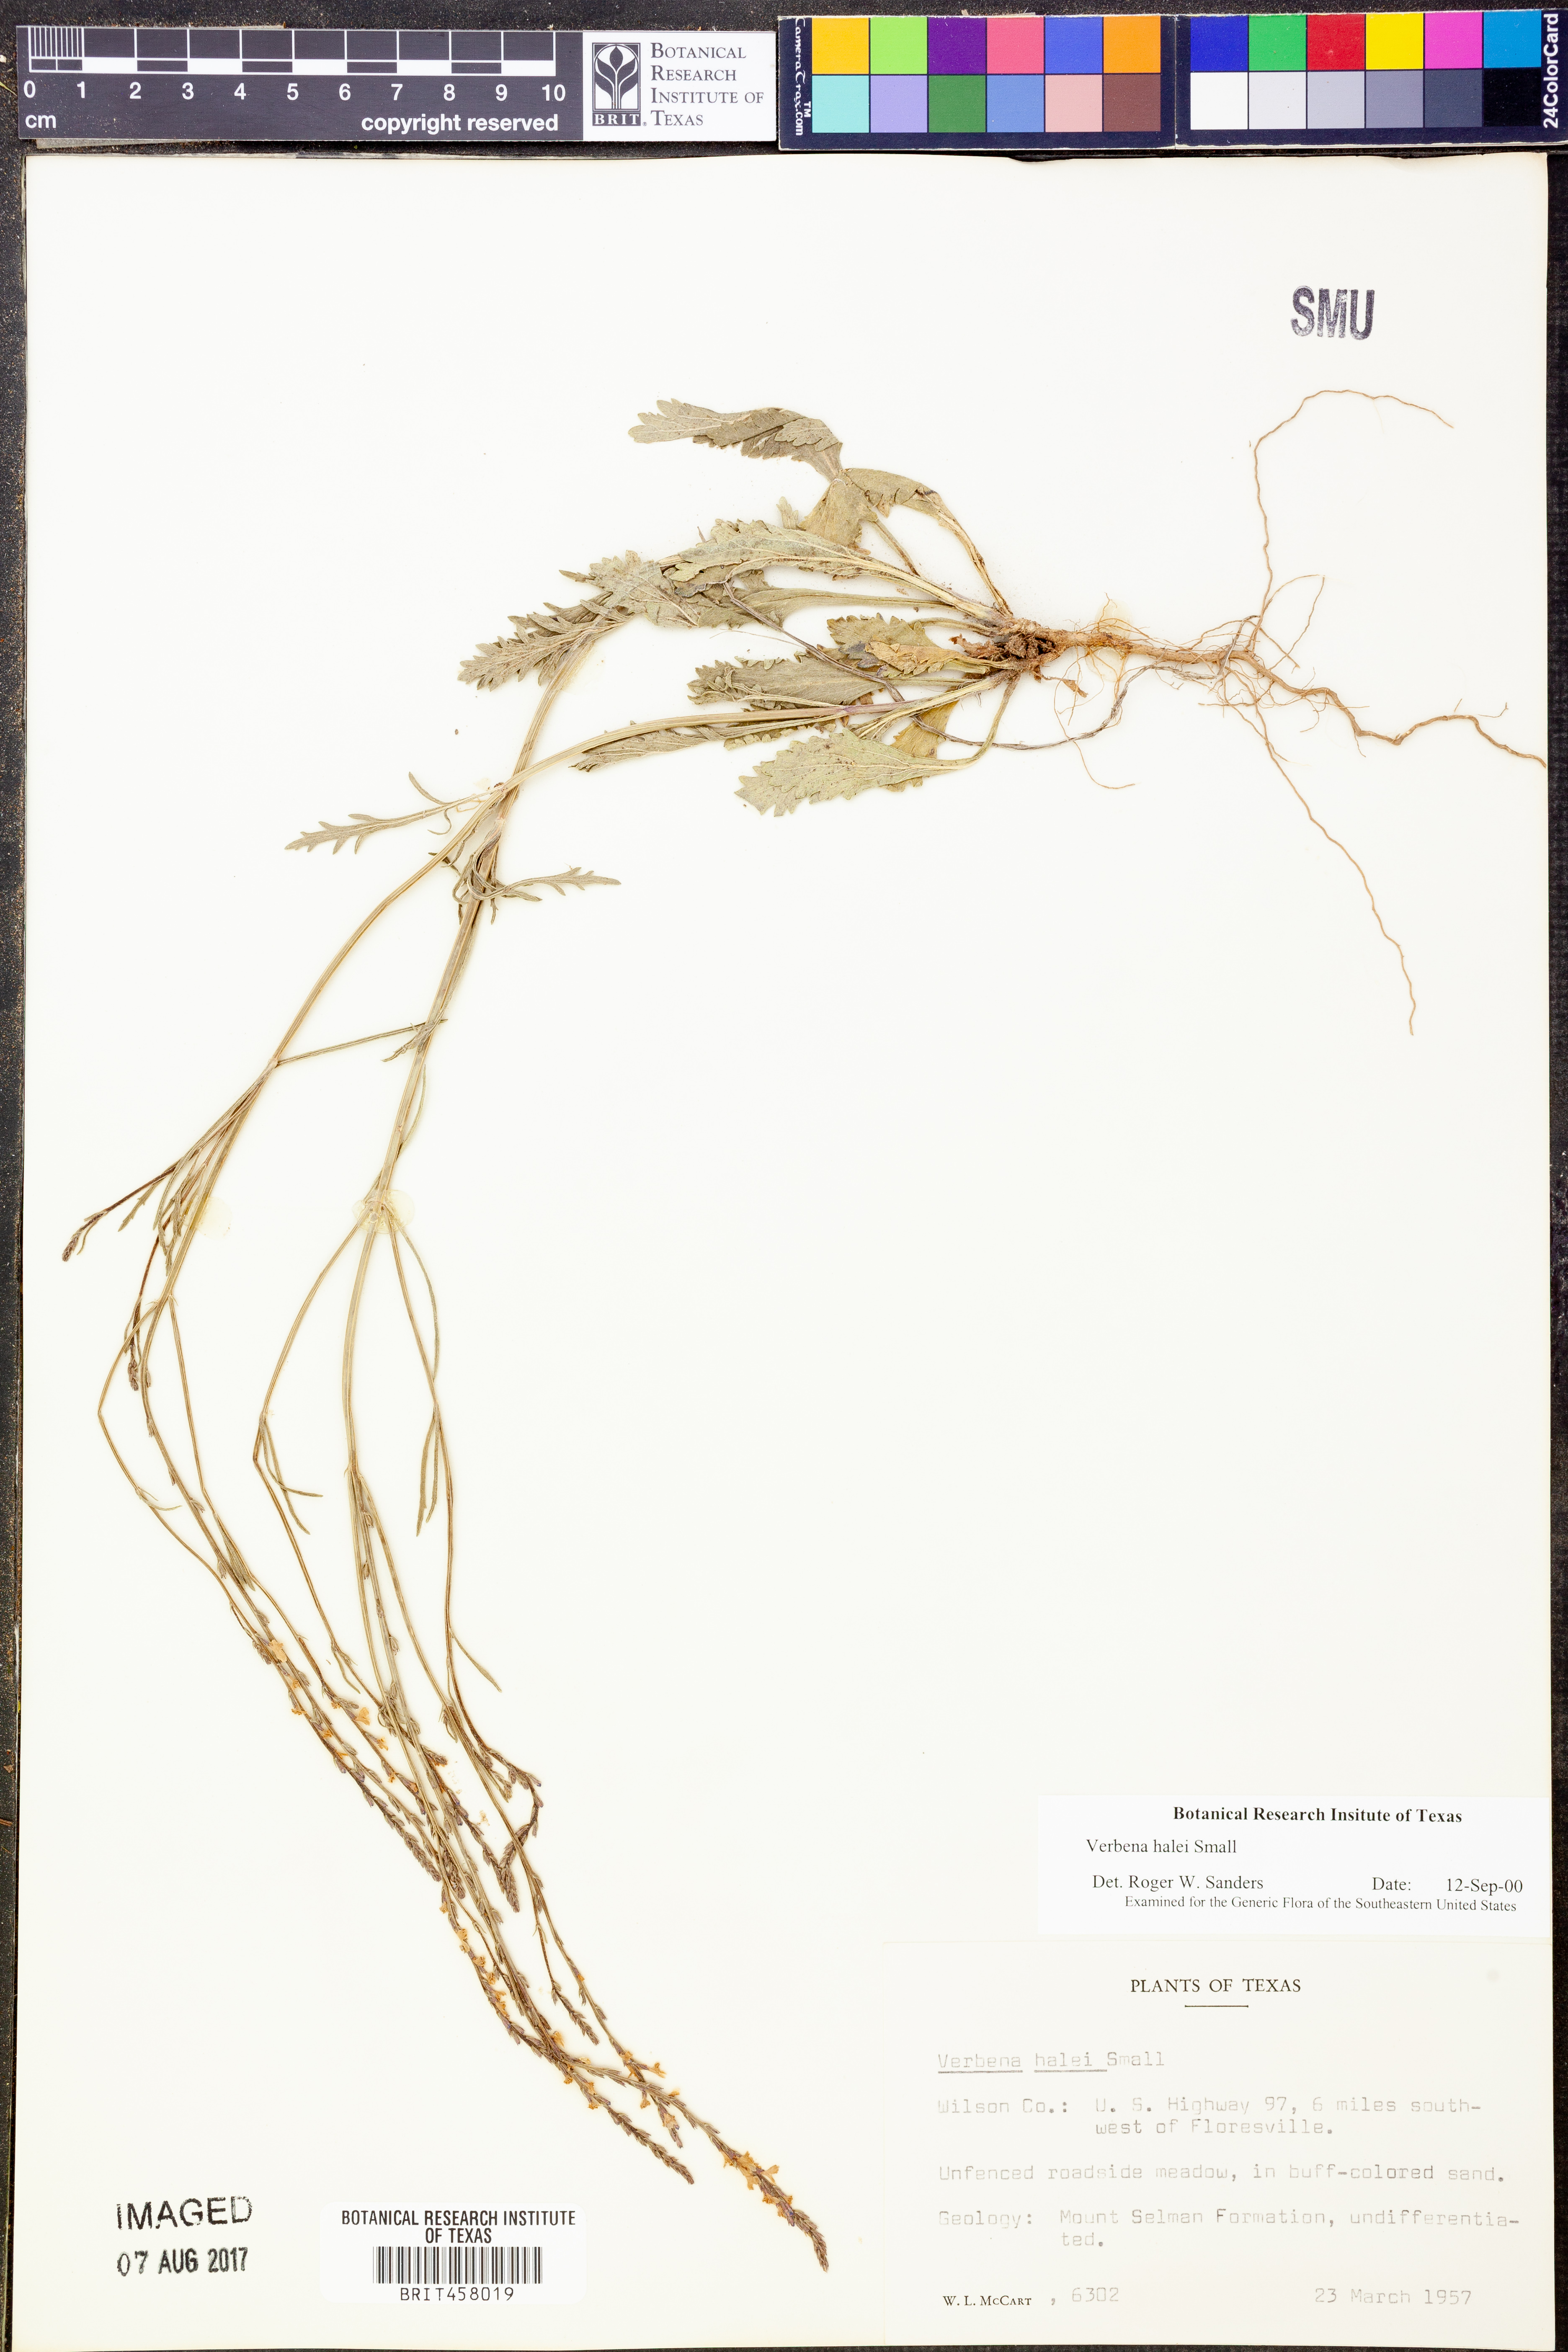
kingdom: Plantae
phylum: Tracheophyta
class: Magnoliopsida
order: Lamiales
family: Verbenaceae
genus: Verbena
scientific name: Verbena halei
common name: Texas vervain
